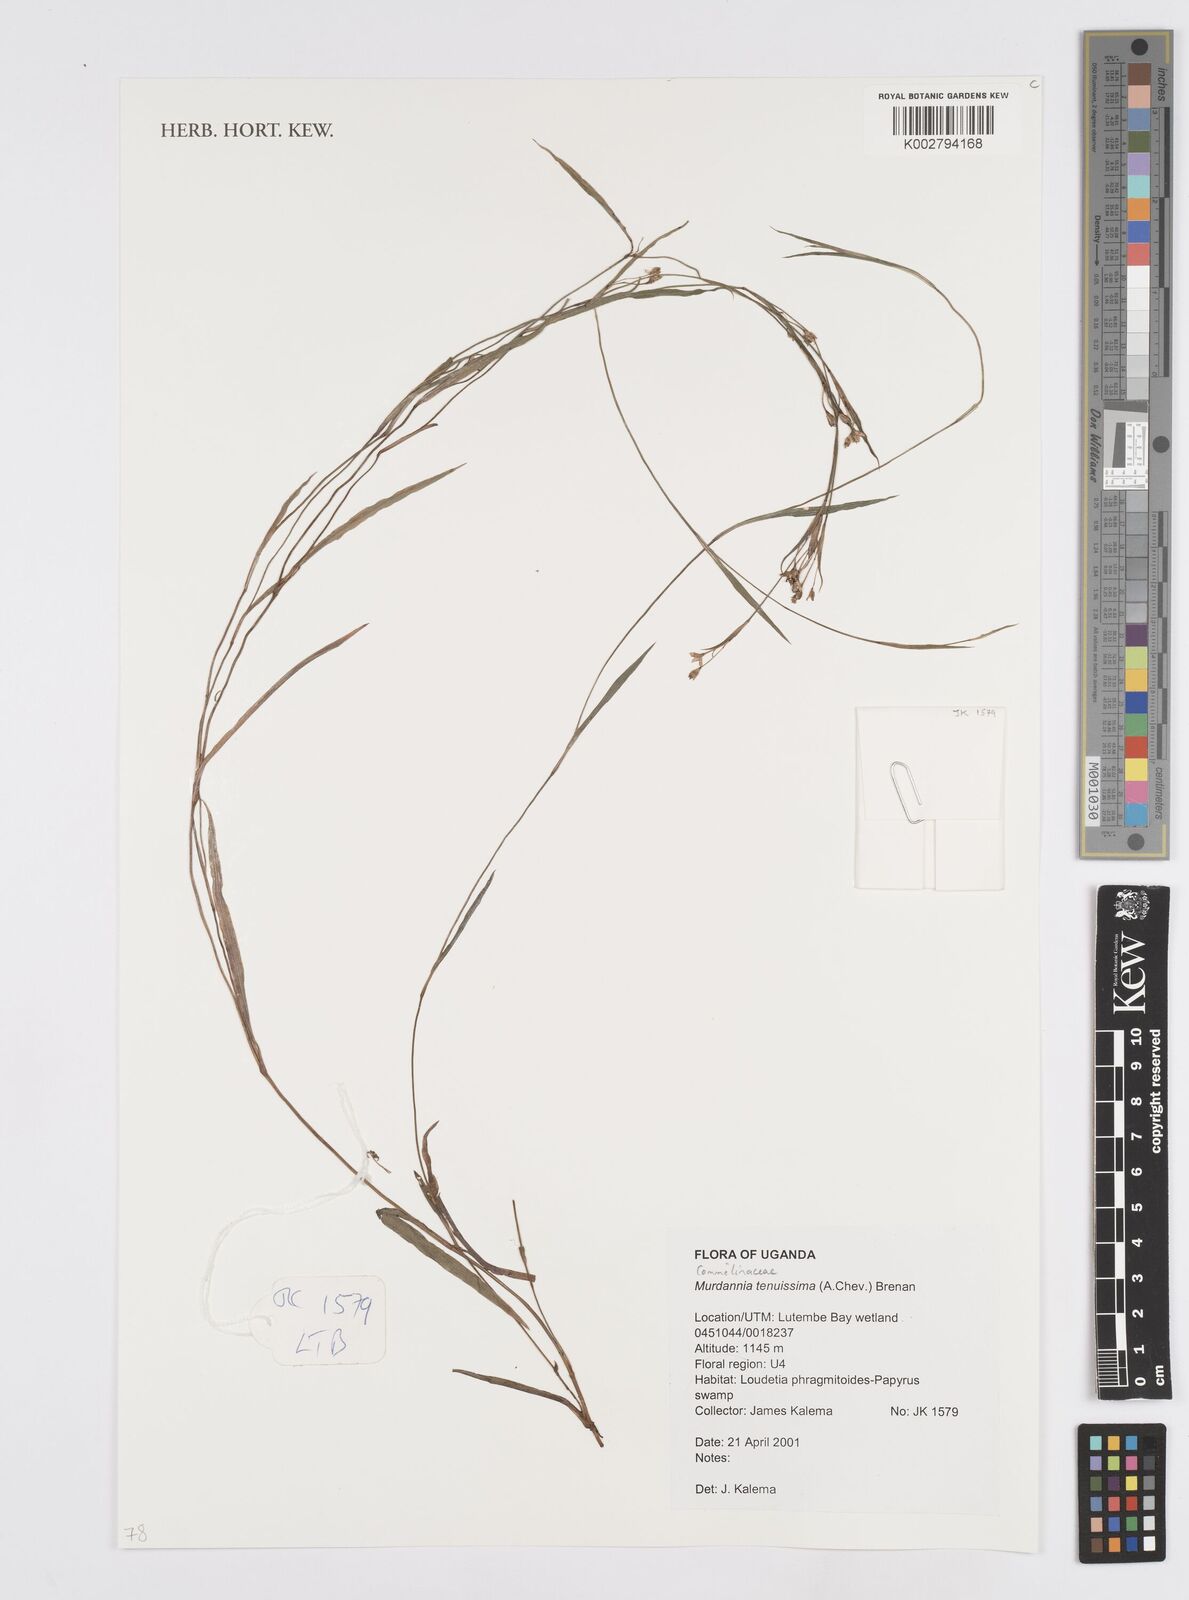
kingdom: Plantae
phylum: Tracheophyta
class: Liliopsida
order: Commelinales
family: Commelinaceae
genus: Murdannia
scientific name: Murdannia tenuissima
